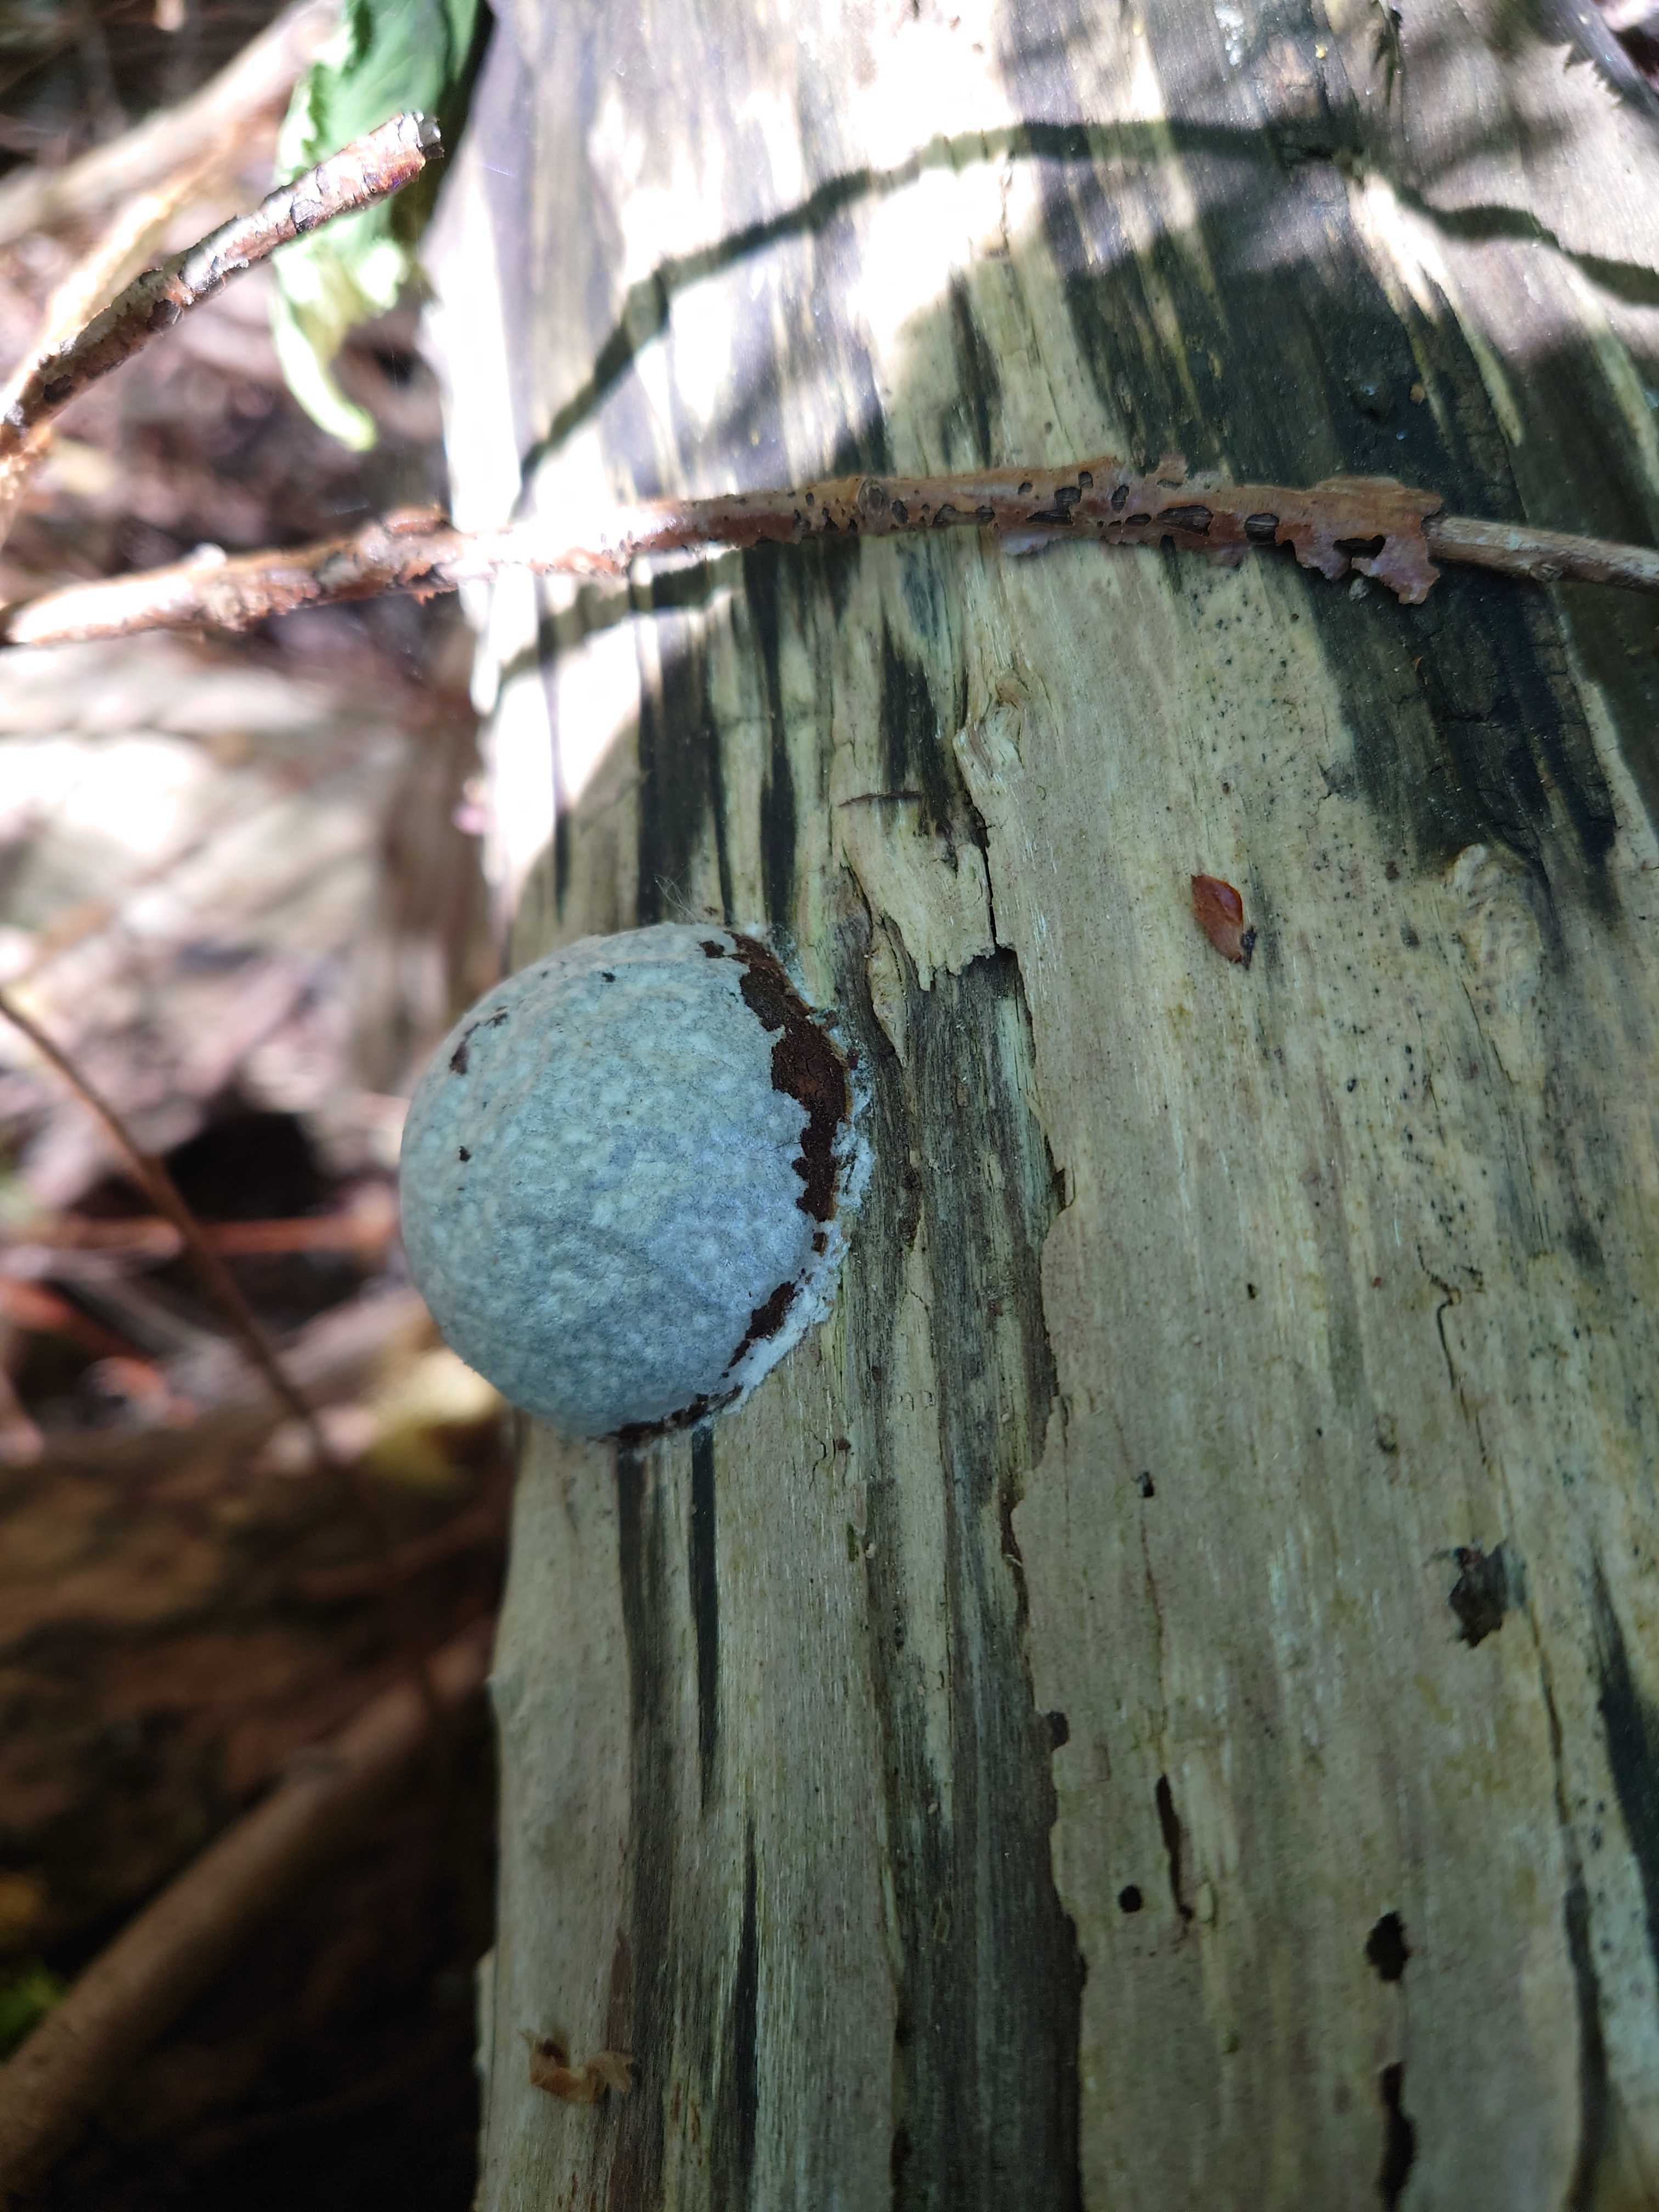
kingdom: Protozoa
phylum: Mycetozoa
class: Myxomycetes
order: Cribrariales
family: Tubiferaceae
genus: Reticularia
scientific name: Reticularia lycoperdon
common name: skinnende støvpude
